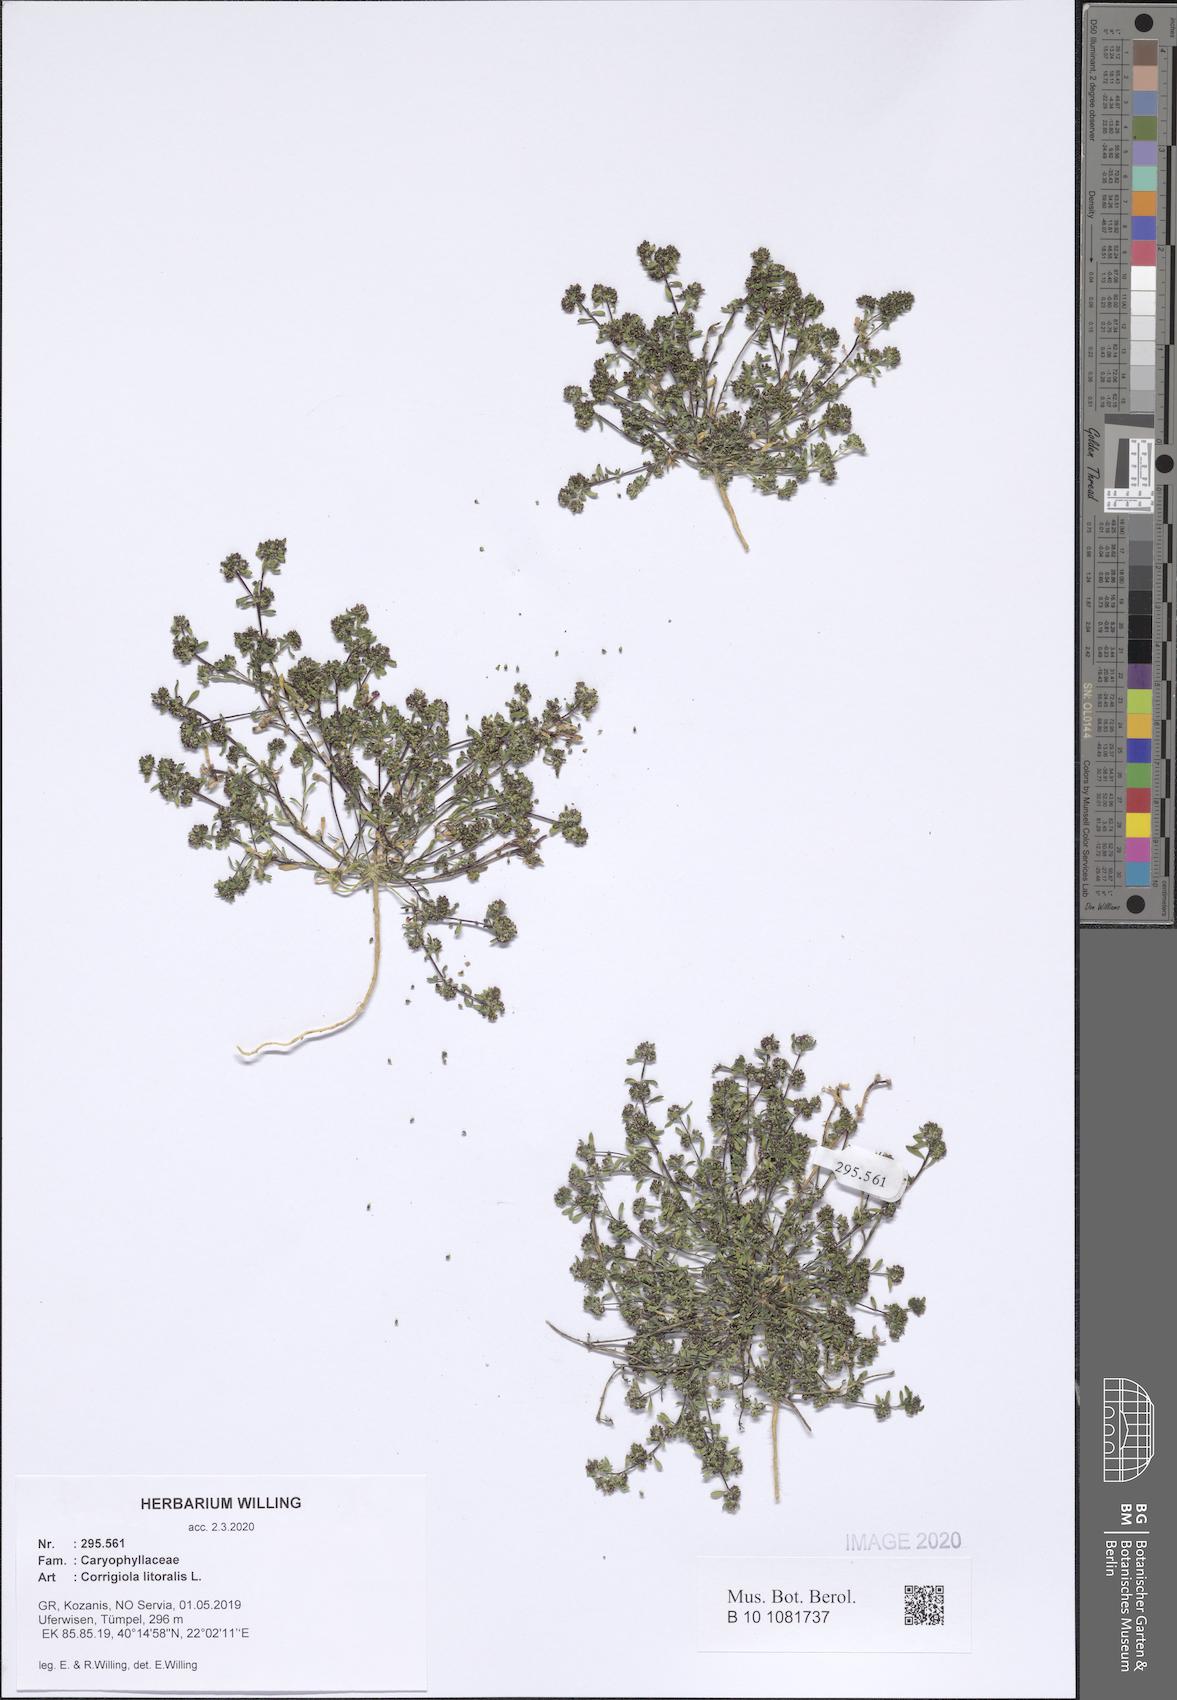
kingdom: Plantae
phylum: Tracheophyta
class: Magnoliopsida
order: Caryophyllales
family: Caryophyllaceae
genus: Corrigiola
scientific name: Corrigiola litoralis
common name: Strapwort
